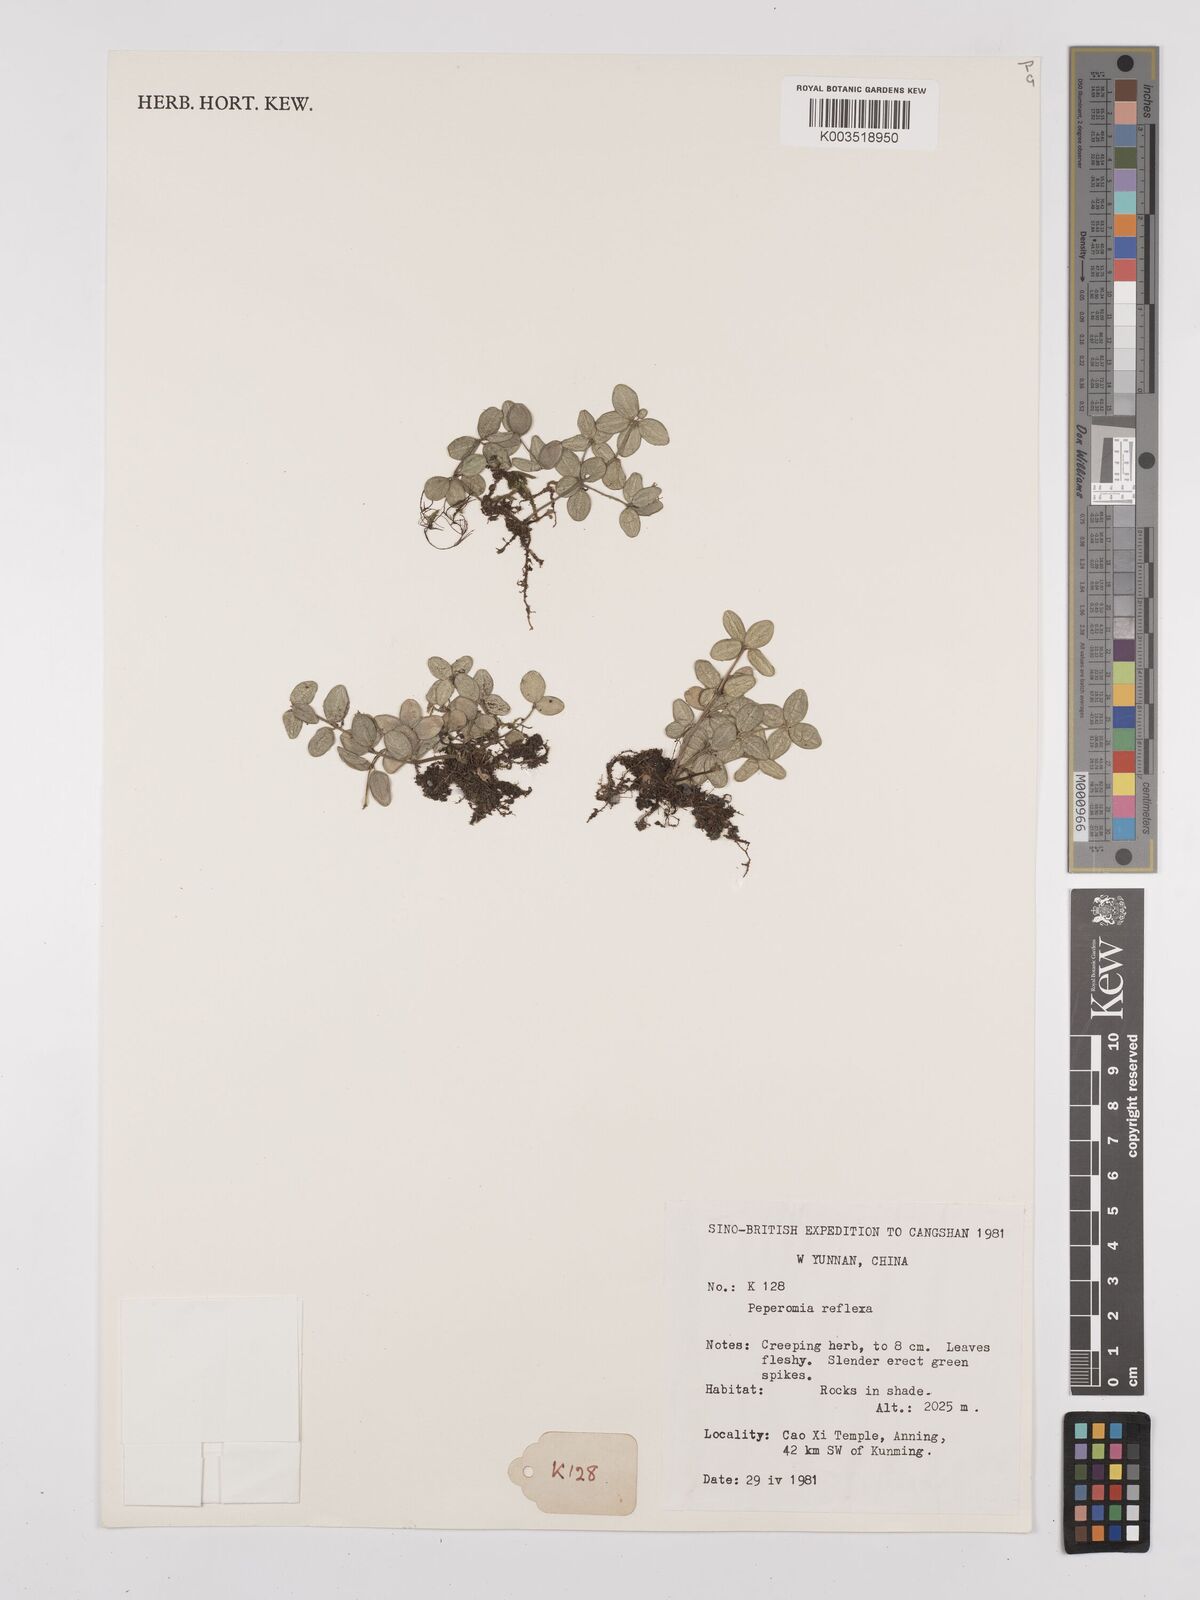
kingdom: Plantae
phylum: Tracheophyta
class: Magnoliopsida
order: Piperales
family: Piperaceae
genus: Peperomia
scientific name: Peperomia tetraphylla
